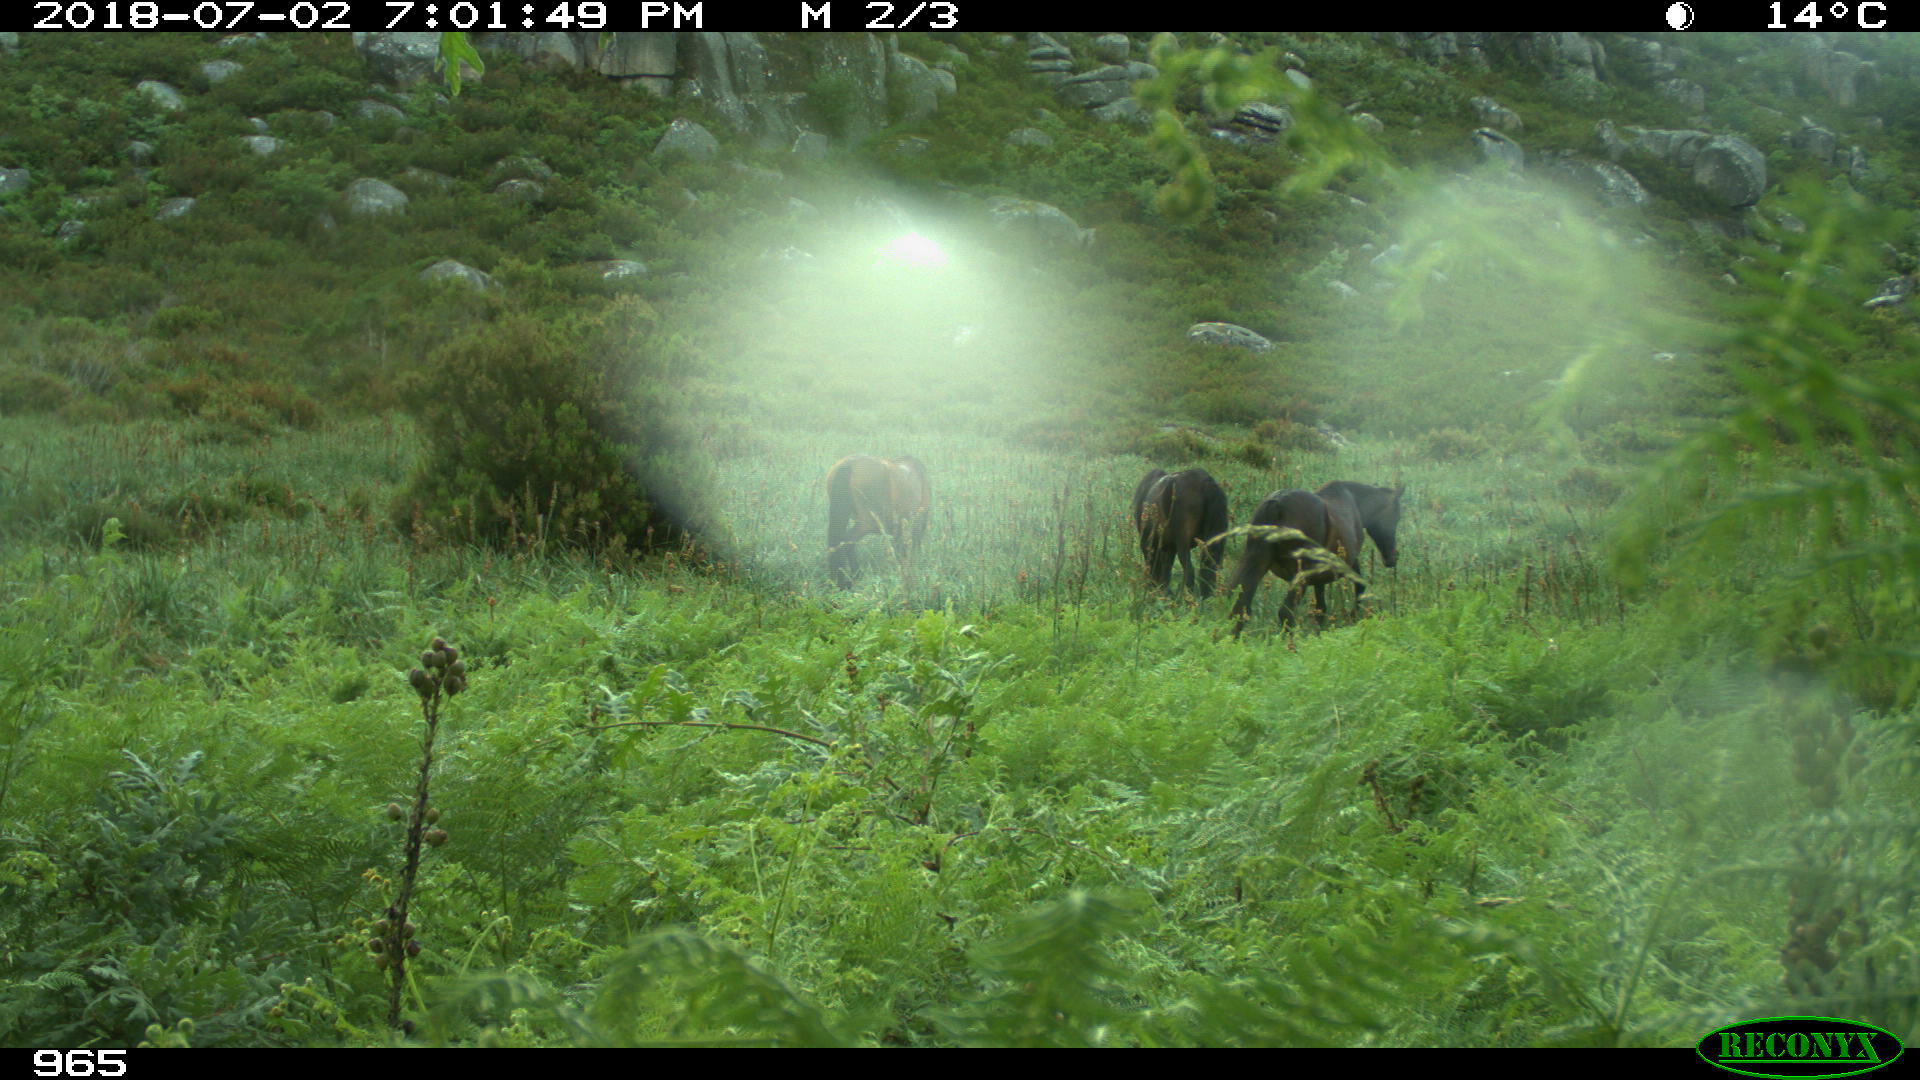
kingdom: Animalia
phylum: Chordata
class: Mammalia
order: Perissodactyla
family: Equidae
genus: Equus
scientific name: Equus caballus
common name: Horse
